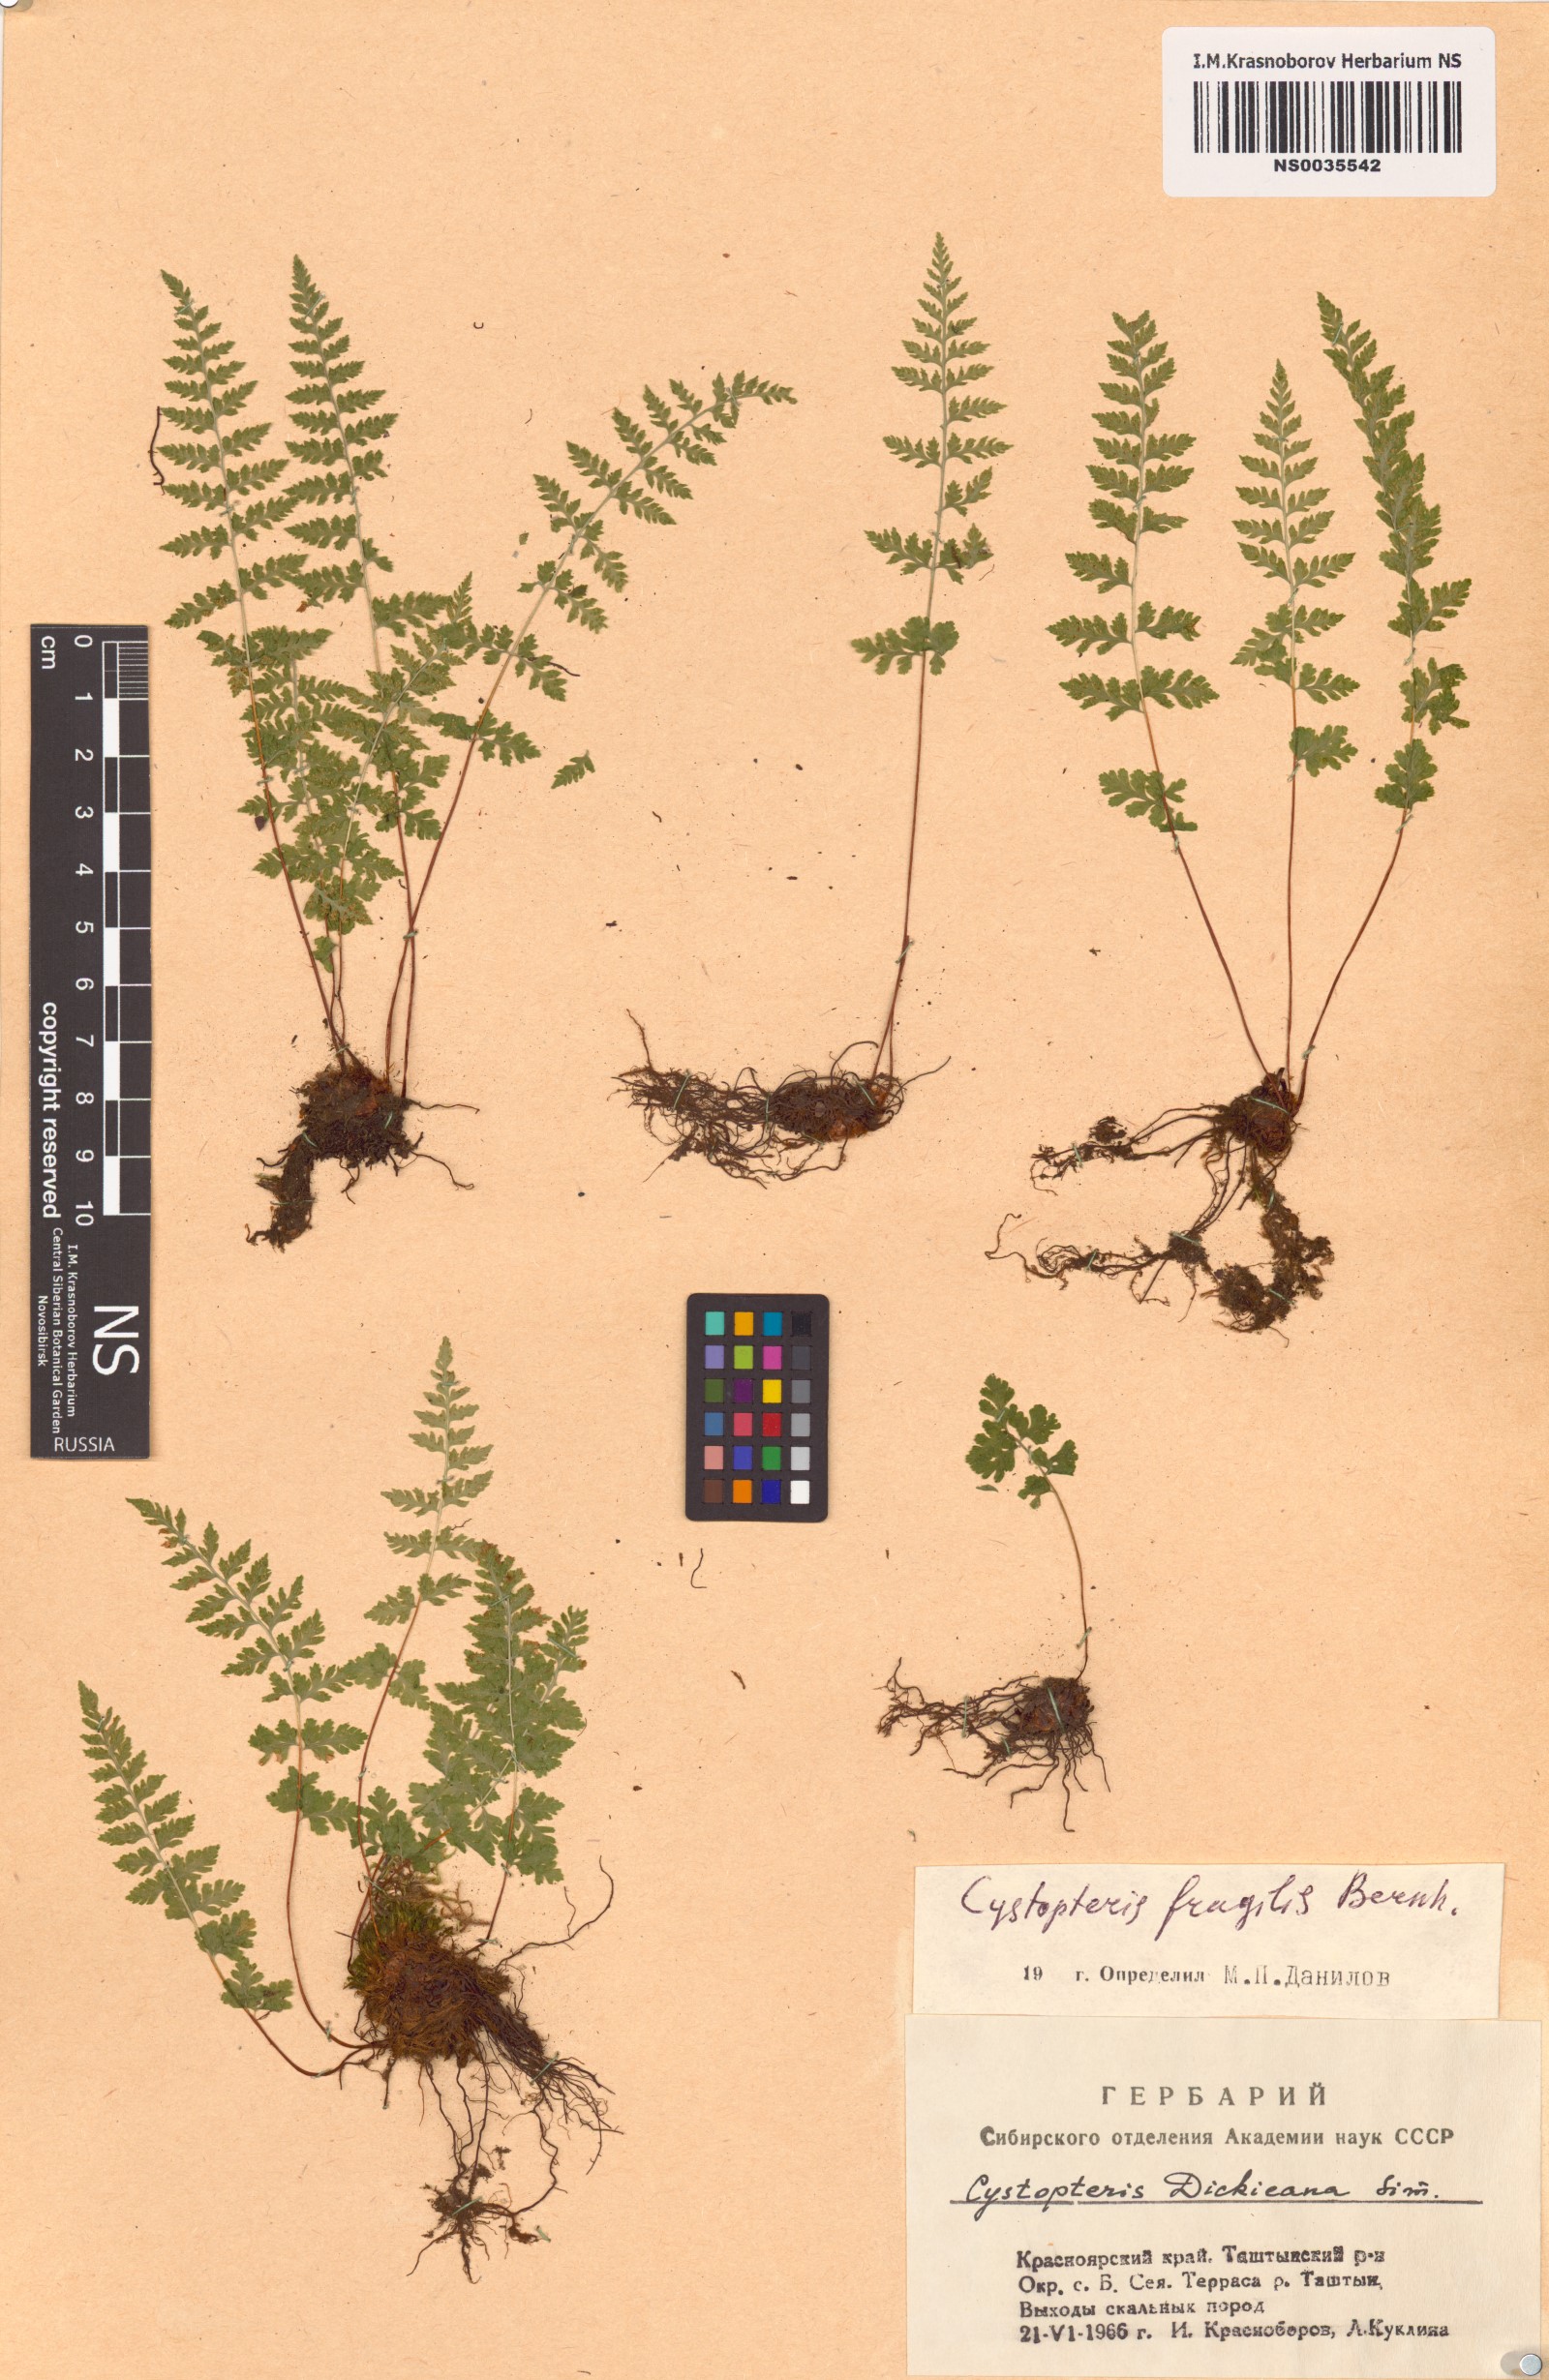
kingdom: Plantae
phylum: Tracheophyta
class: Polypodiopsida
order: Polypodiales
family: Cystopteridaceae
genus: Cystopteris
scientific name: Cystopteris fragilis
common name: Brittle bladder fern
